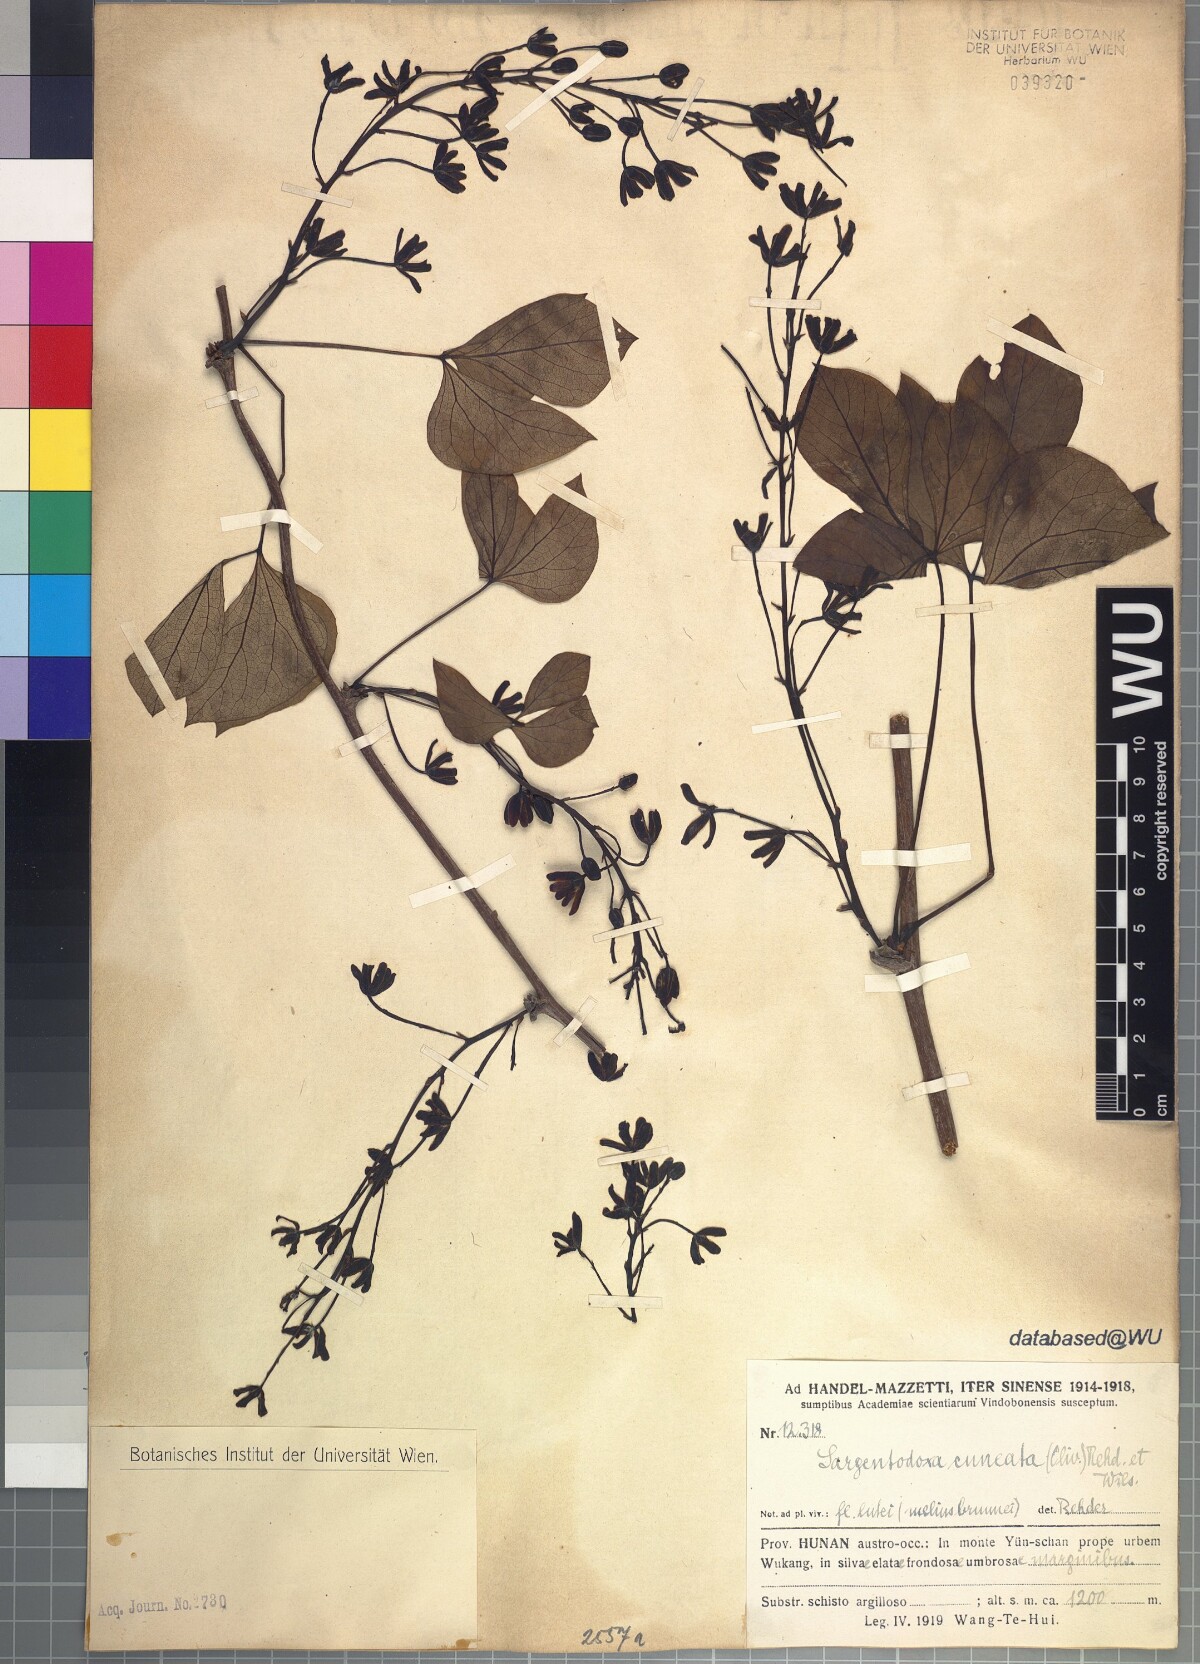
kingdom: Plantae
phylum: Tracheophyta
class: Magnoliopsida
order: Ranunculales
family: Lardizabalaceae
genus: Sargentodoxa
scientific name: Sargentodoxa cuneata
